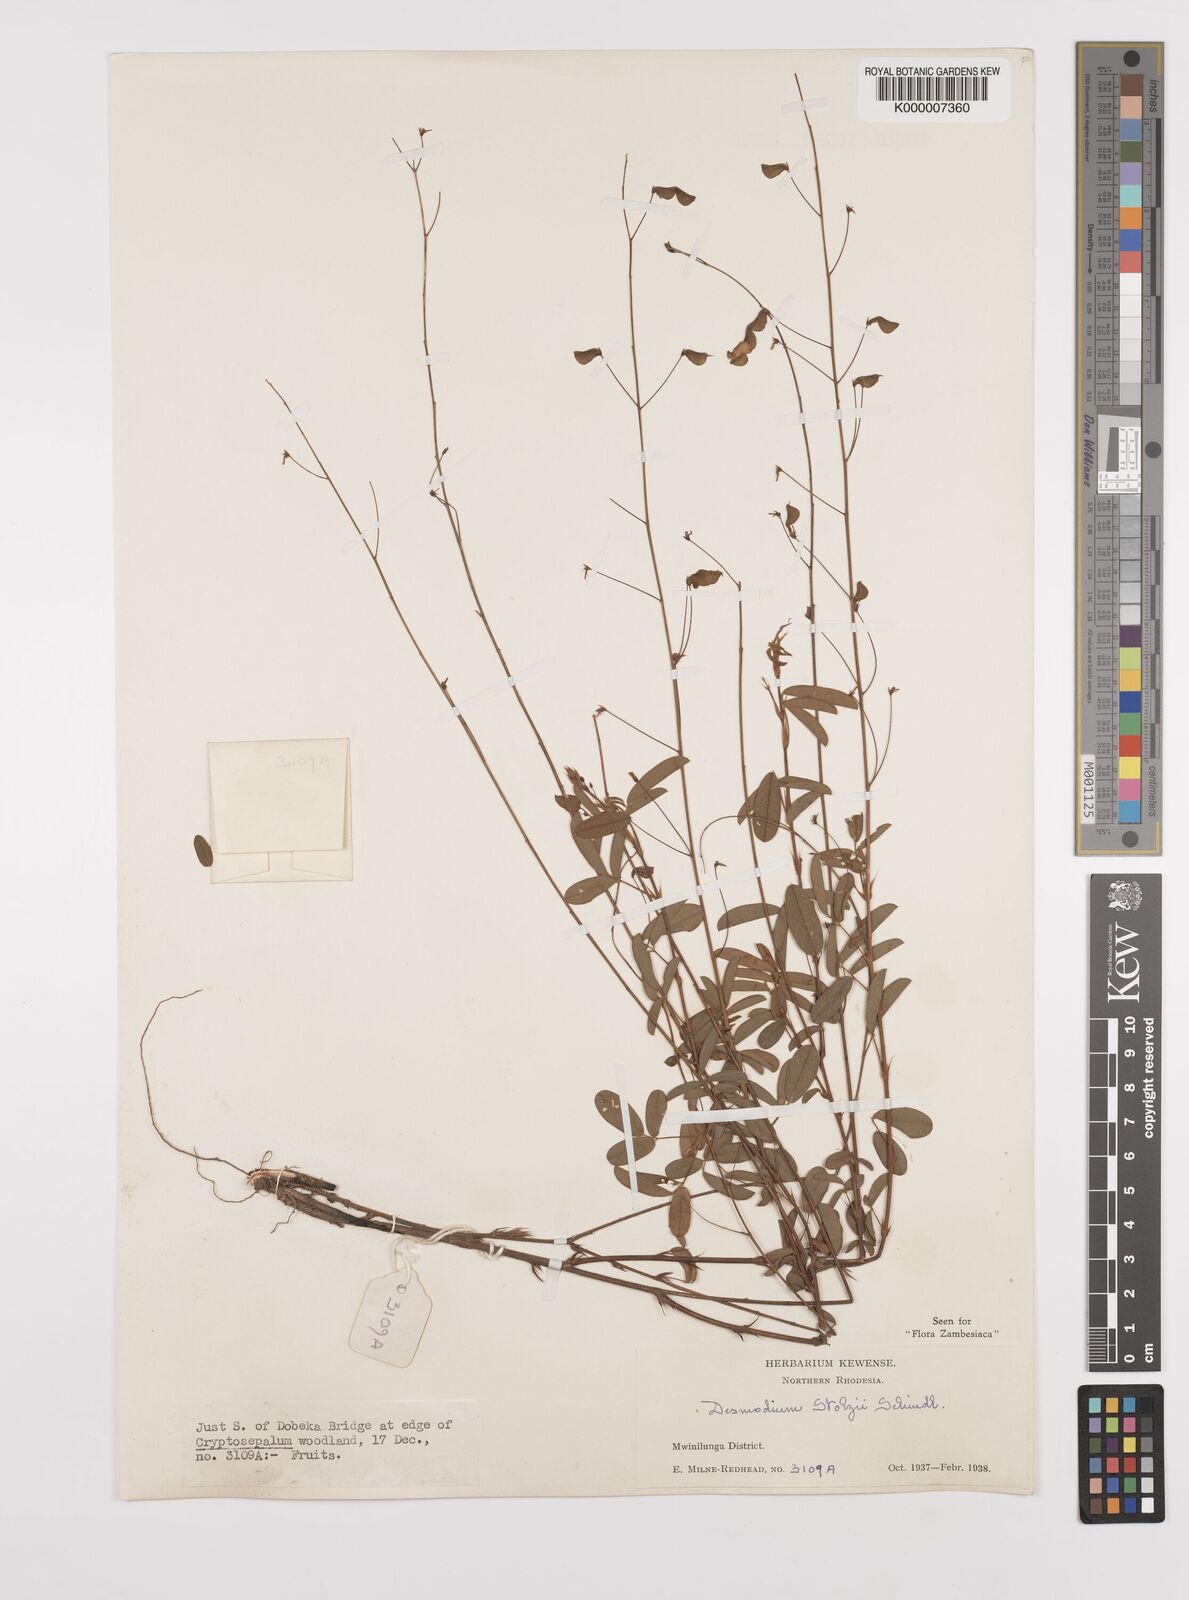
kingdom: Plantae
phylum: Tracheophyta
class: Magnoliopsida
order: Fabales
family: Fabaceae
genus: Grona
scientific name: Grona stolzii
